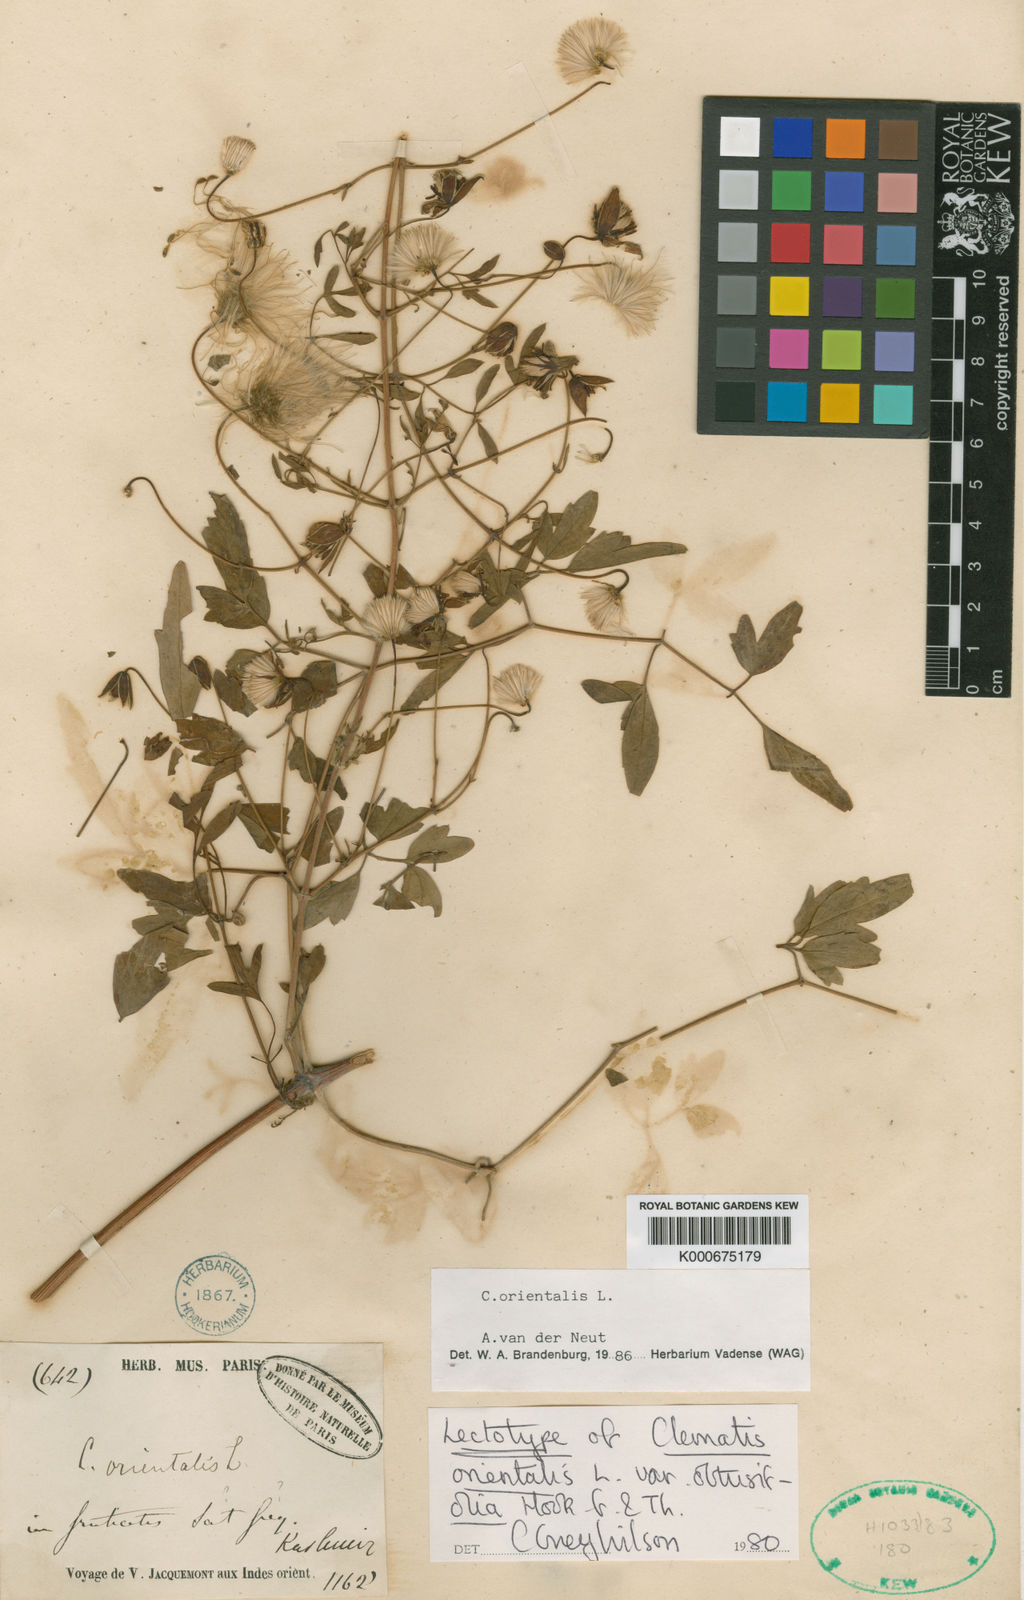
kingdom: Plantae
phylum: Tracheophyta
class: Magnoliopsida
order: Ranunculales
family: Ranunculaceae
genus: Clematis
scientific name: Clematis orientalis
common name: Oriental virgin's-bower
